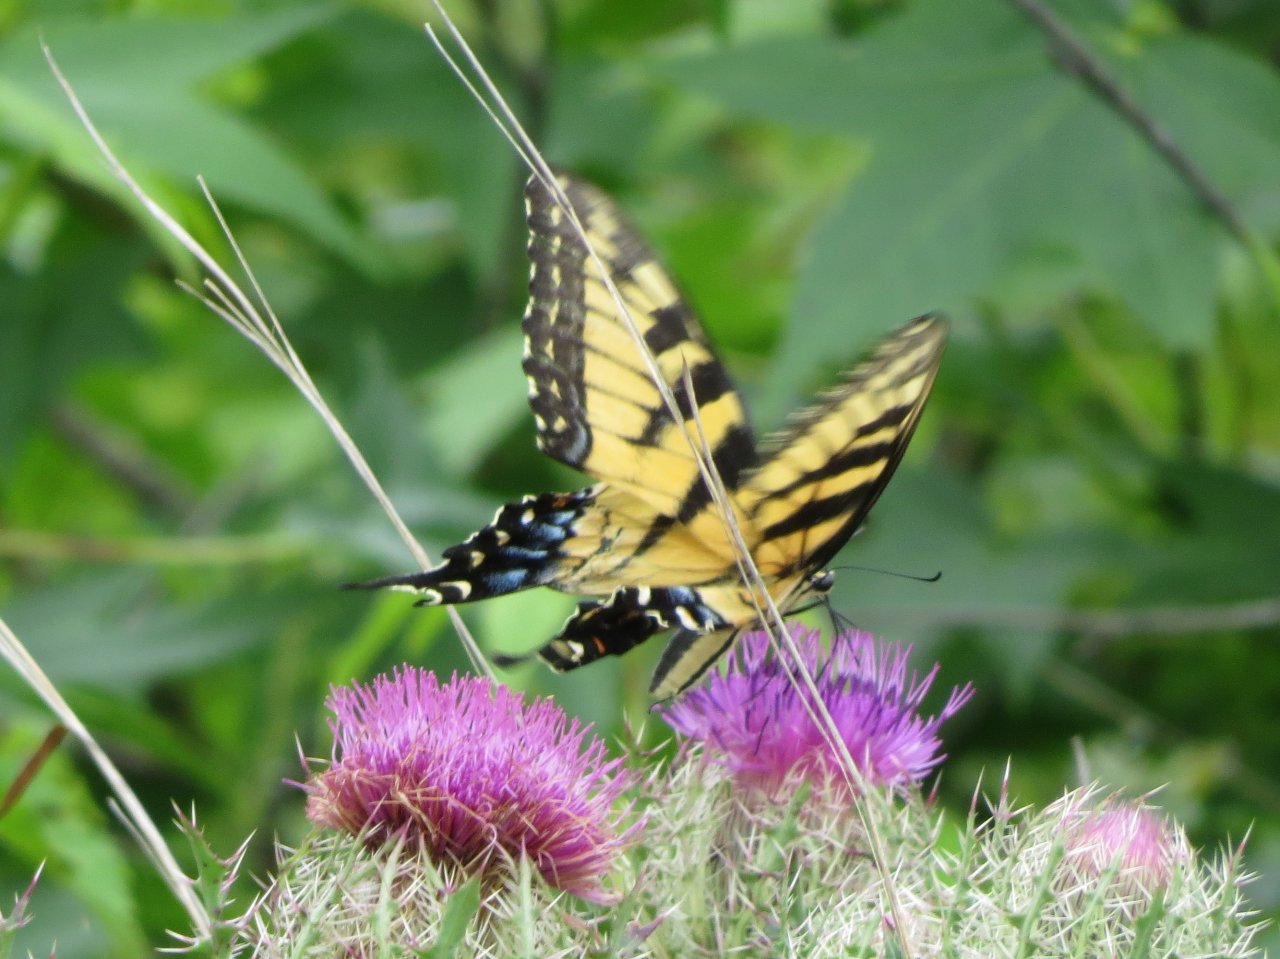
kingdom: Animalia
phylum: Arthropoda
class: Insecta
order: Lepidoptera
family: Papilionidae
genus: Pterourus
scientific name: Pterourus glaucus
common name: Eastern Tiger Swallowtail
